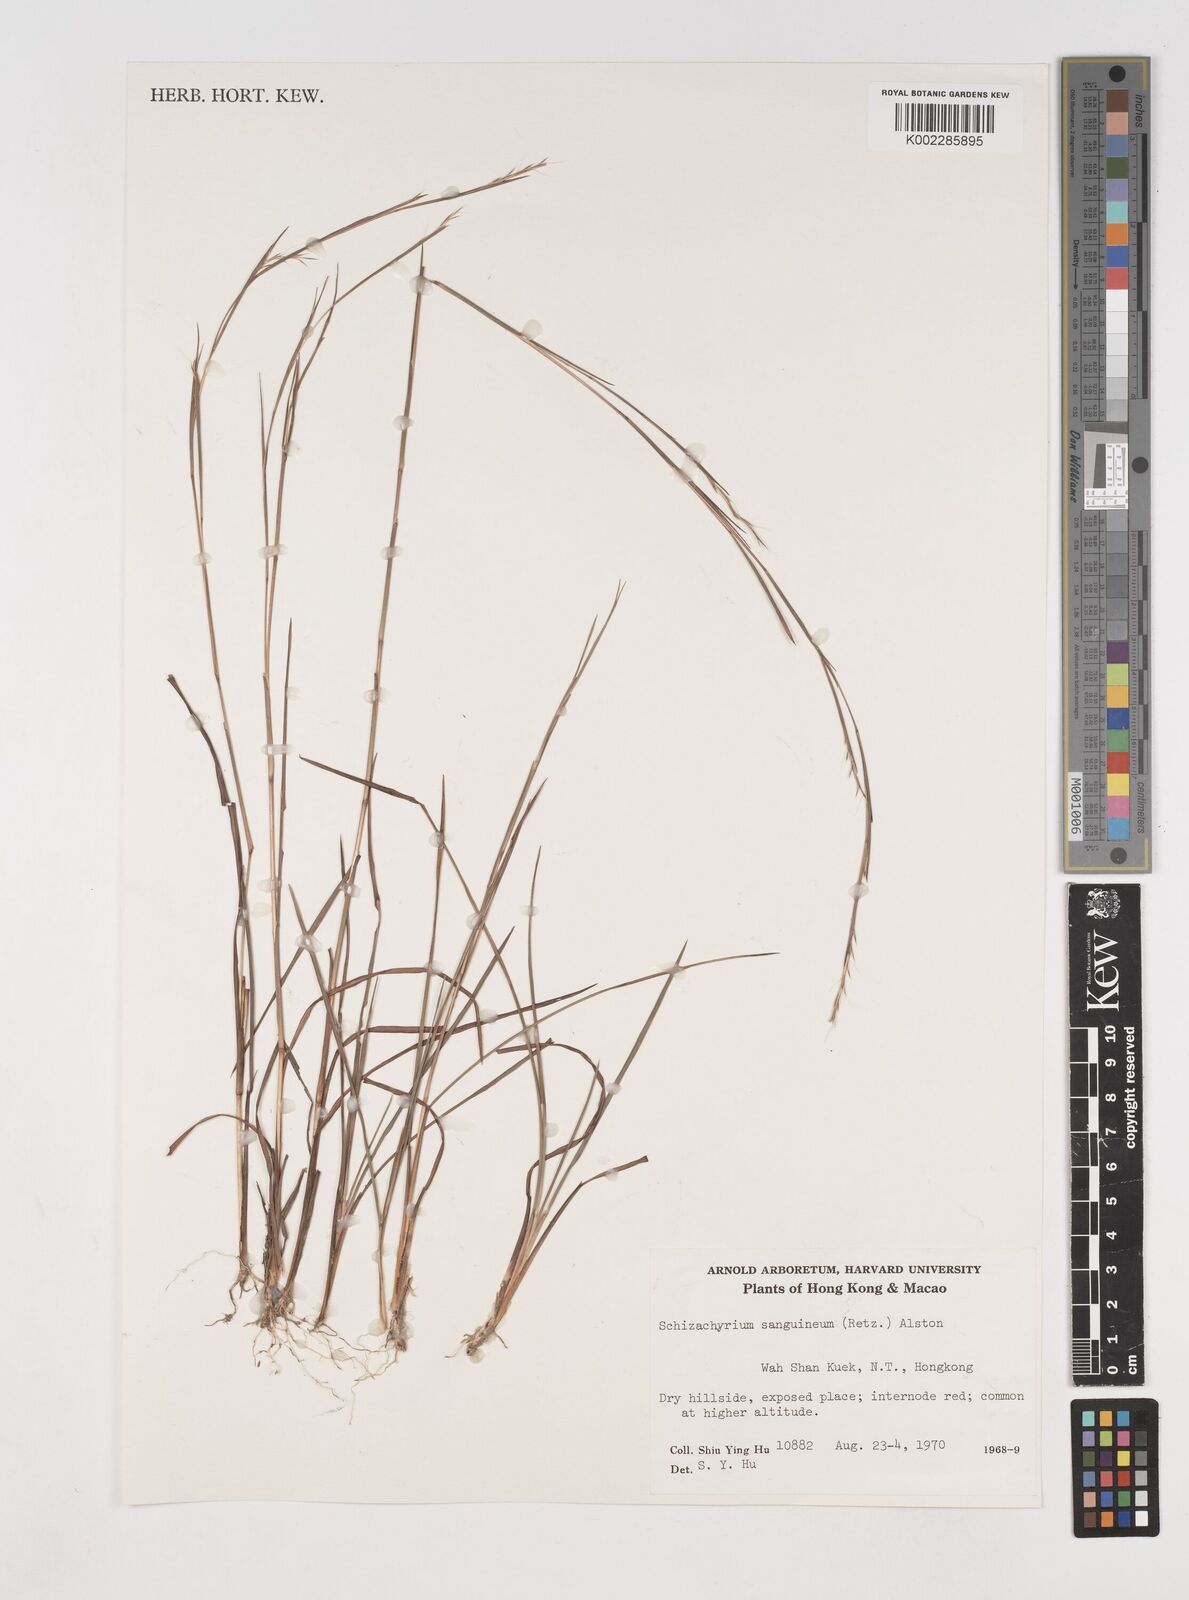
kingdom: Plantae
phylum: Tracheophyta
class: Liliopsida
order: Poales
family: Poaceae
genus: Schizachyrium
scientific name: Schizachyrium sanguineum
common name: Crimson bluestem
